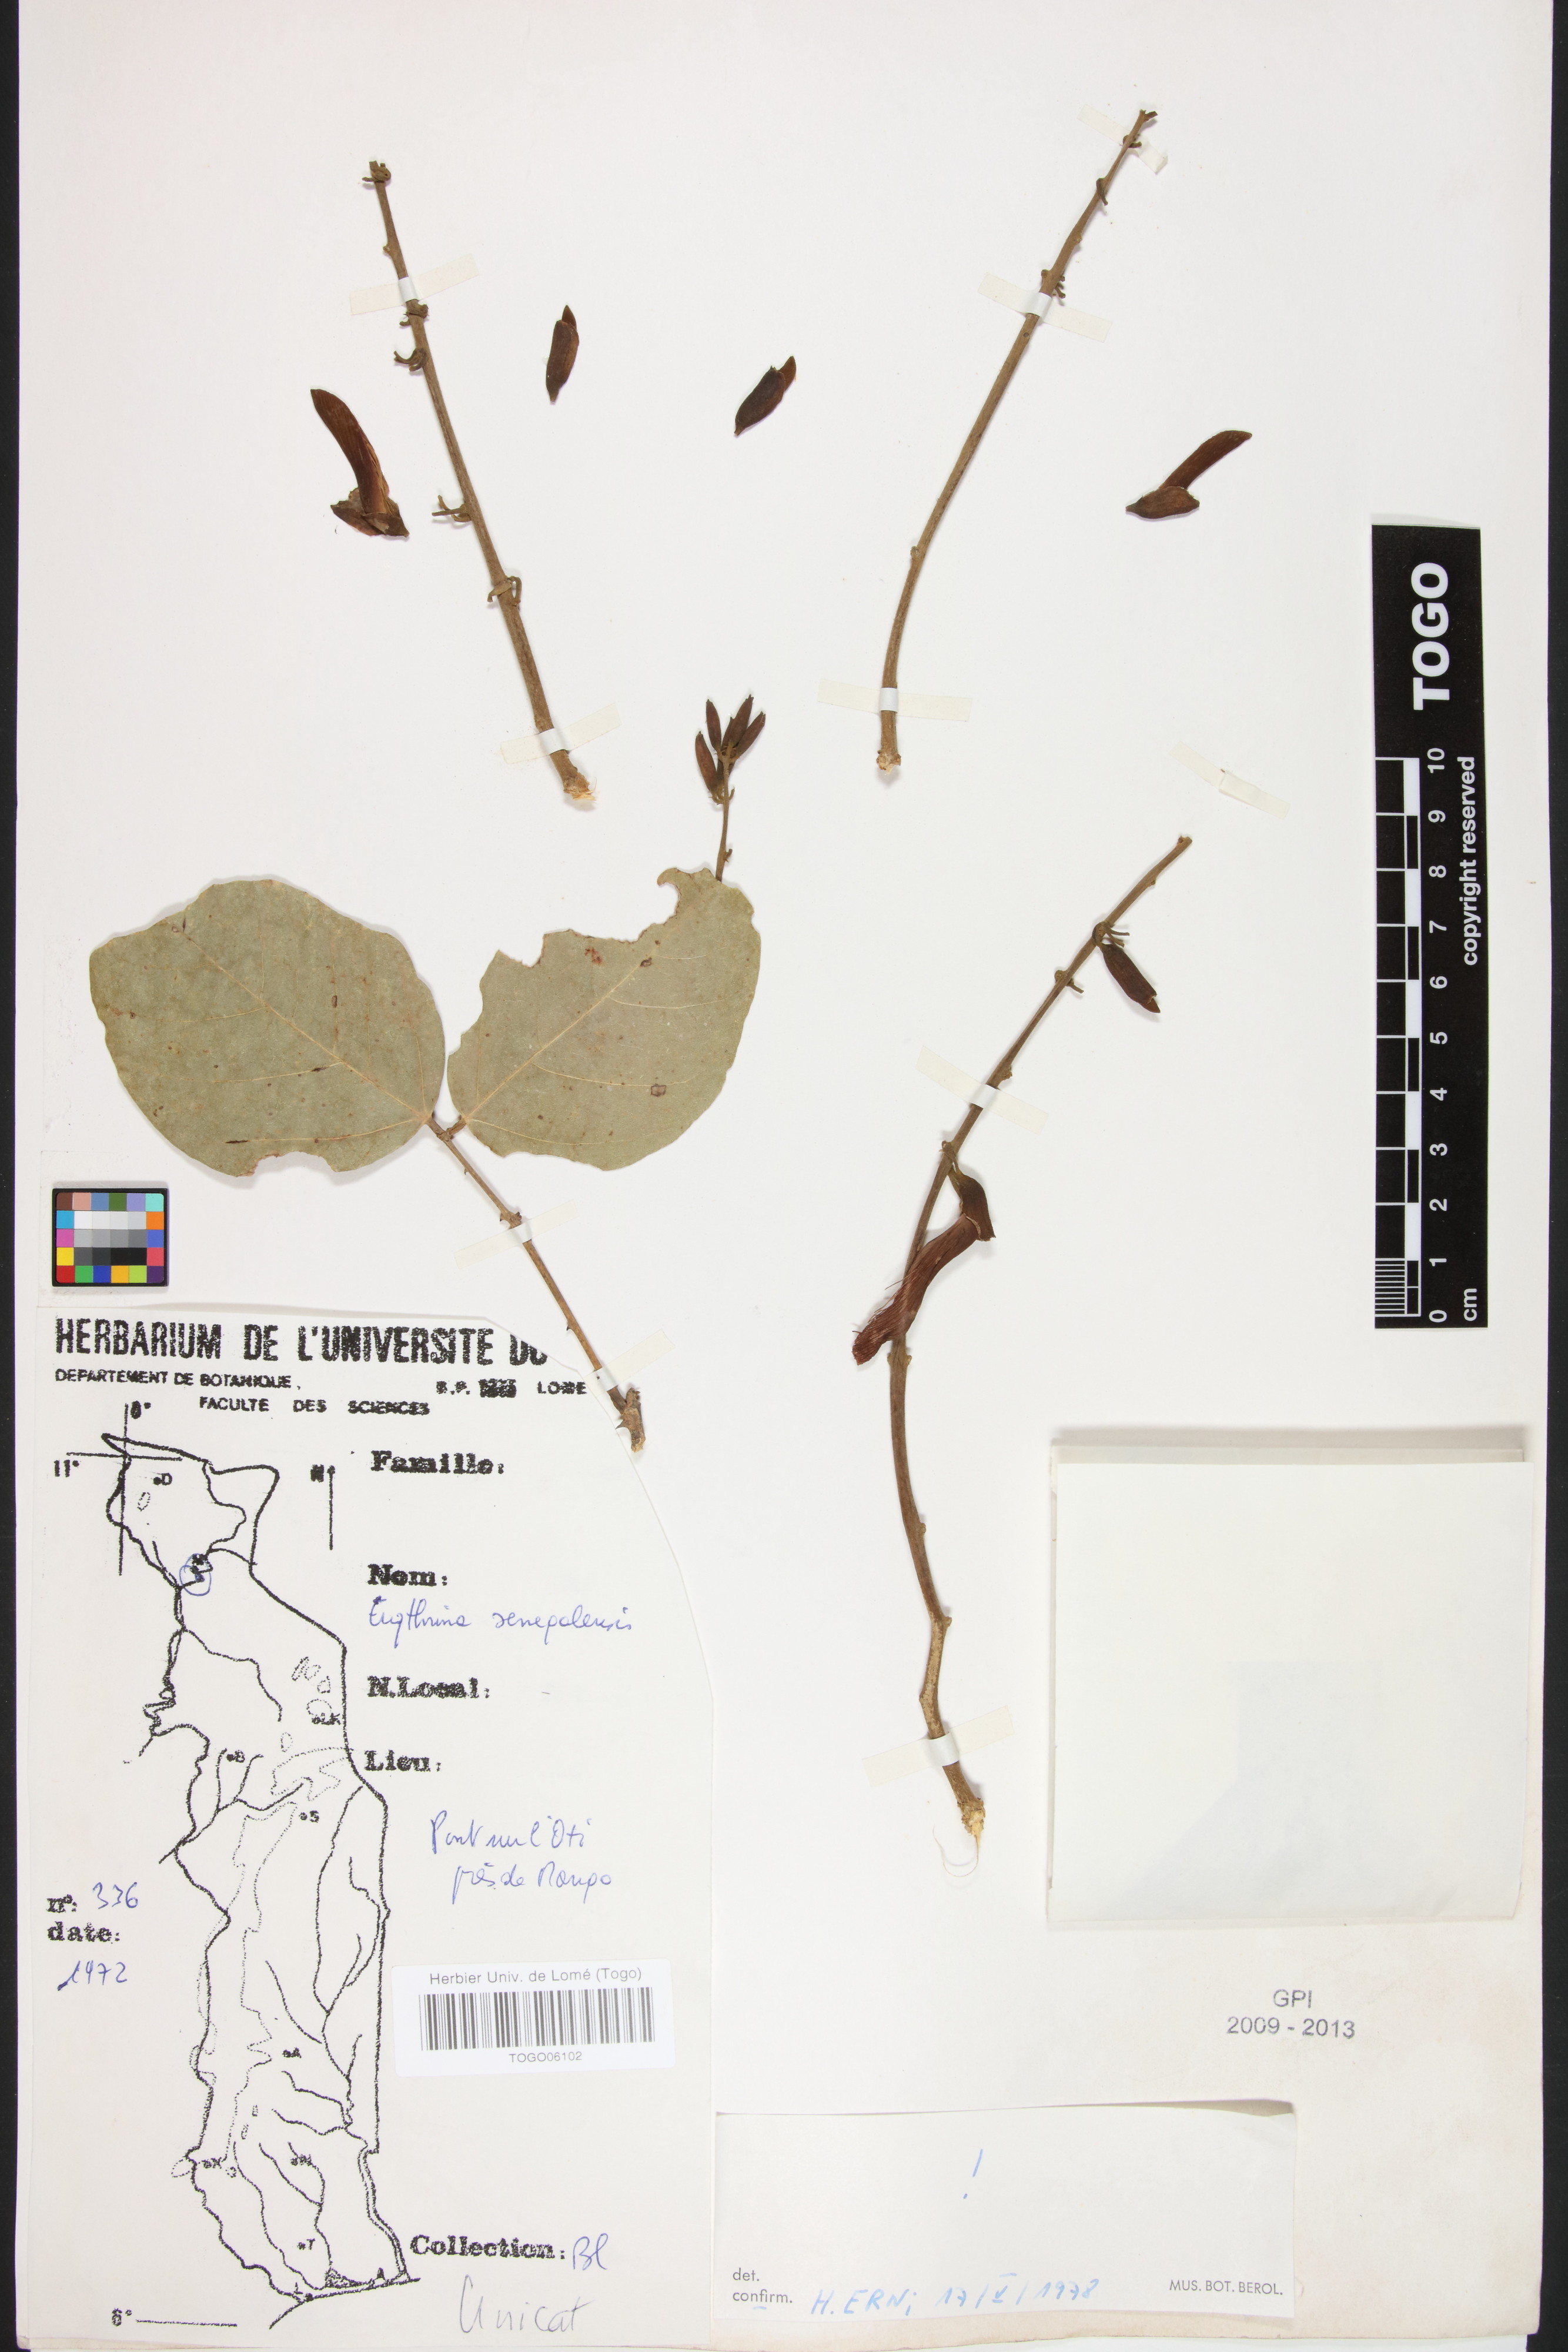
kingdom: Plantae
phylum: Tracheophyta
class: Magnoliopsida
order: Fabales
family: Fabaceae
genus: Erythrina
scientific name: Erythrina senegalensis
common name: Senegal coraltree
